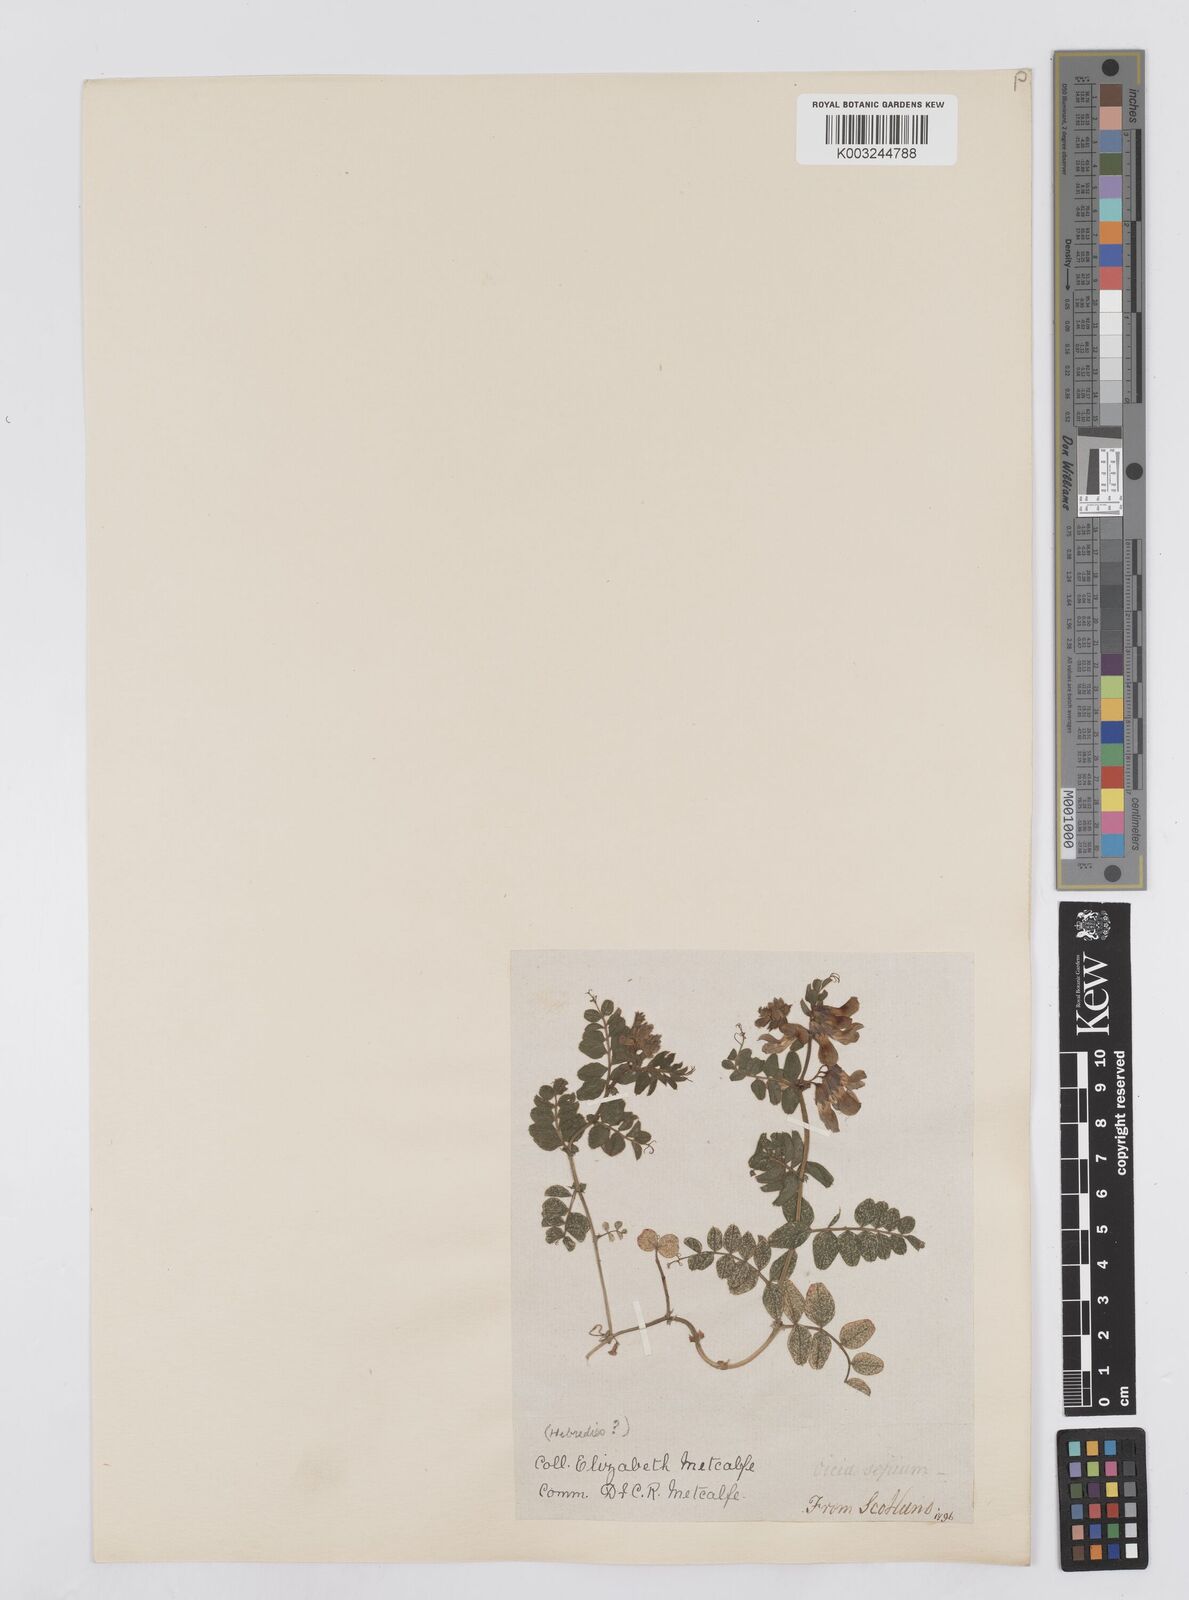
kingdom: Plantae
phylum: Tracheophyta
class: Magnoliopsida
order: Fabales
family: Fabaceae
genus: Vicia
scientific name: Vicia sepium
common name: Bush vetch
